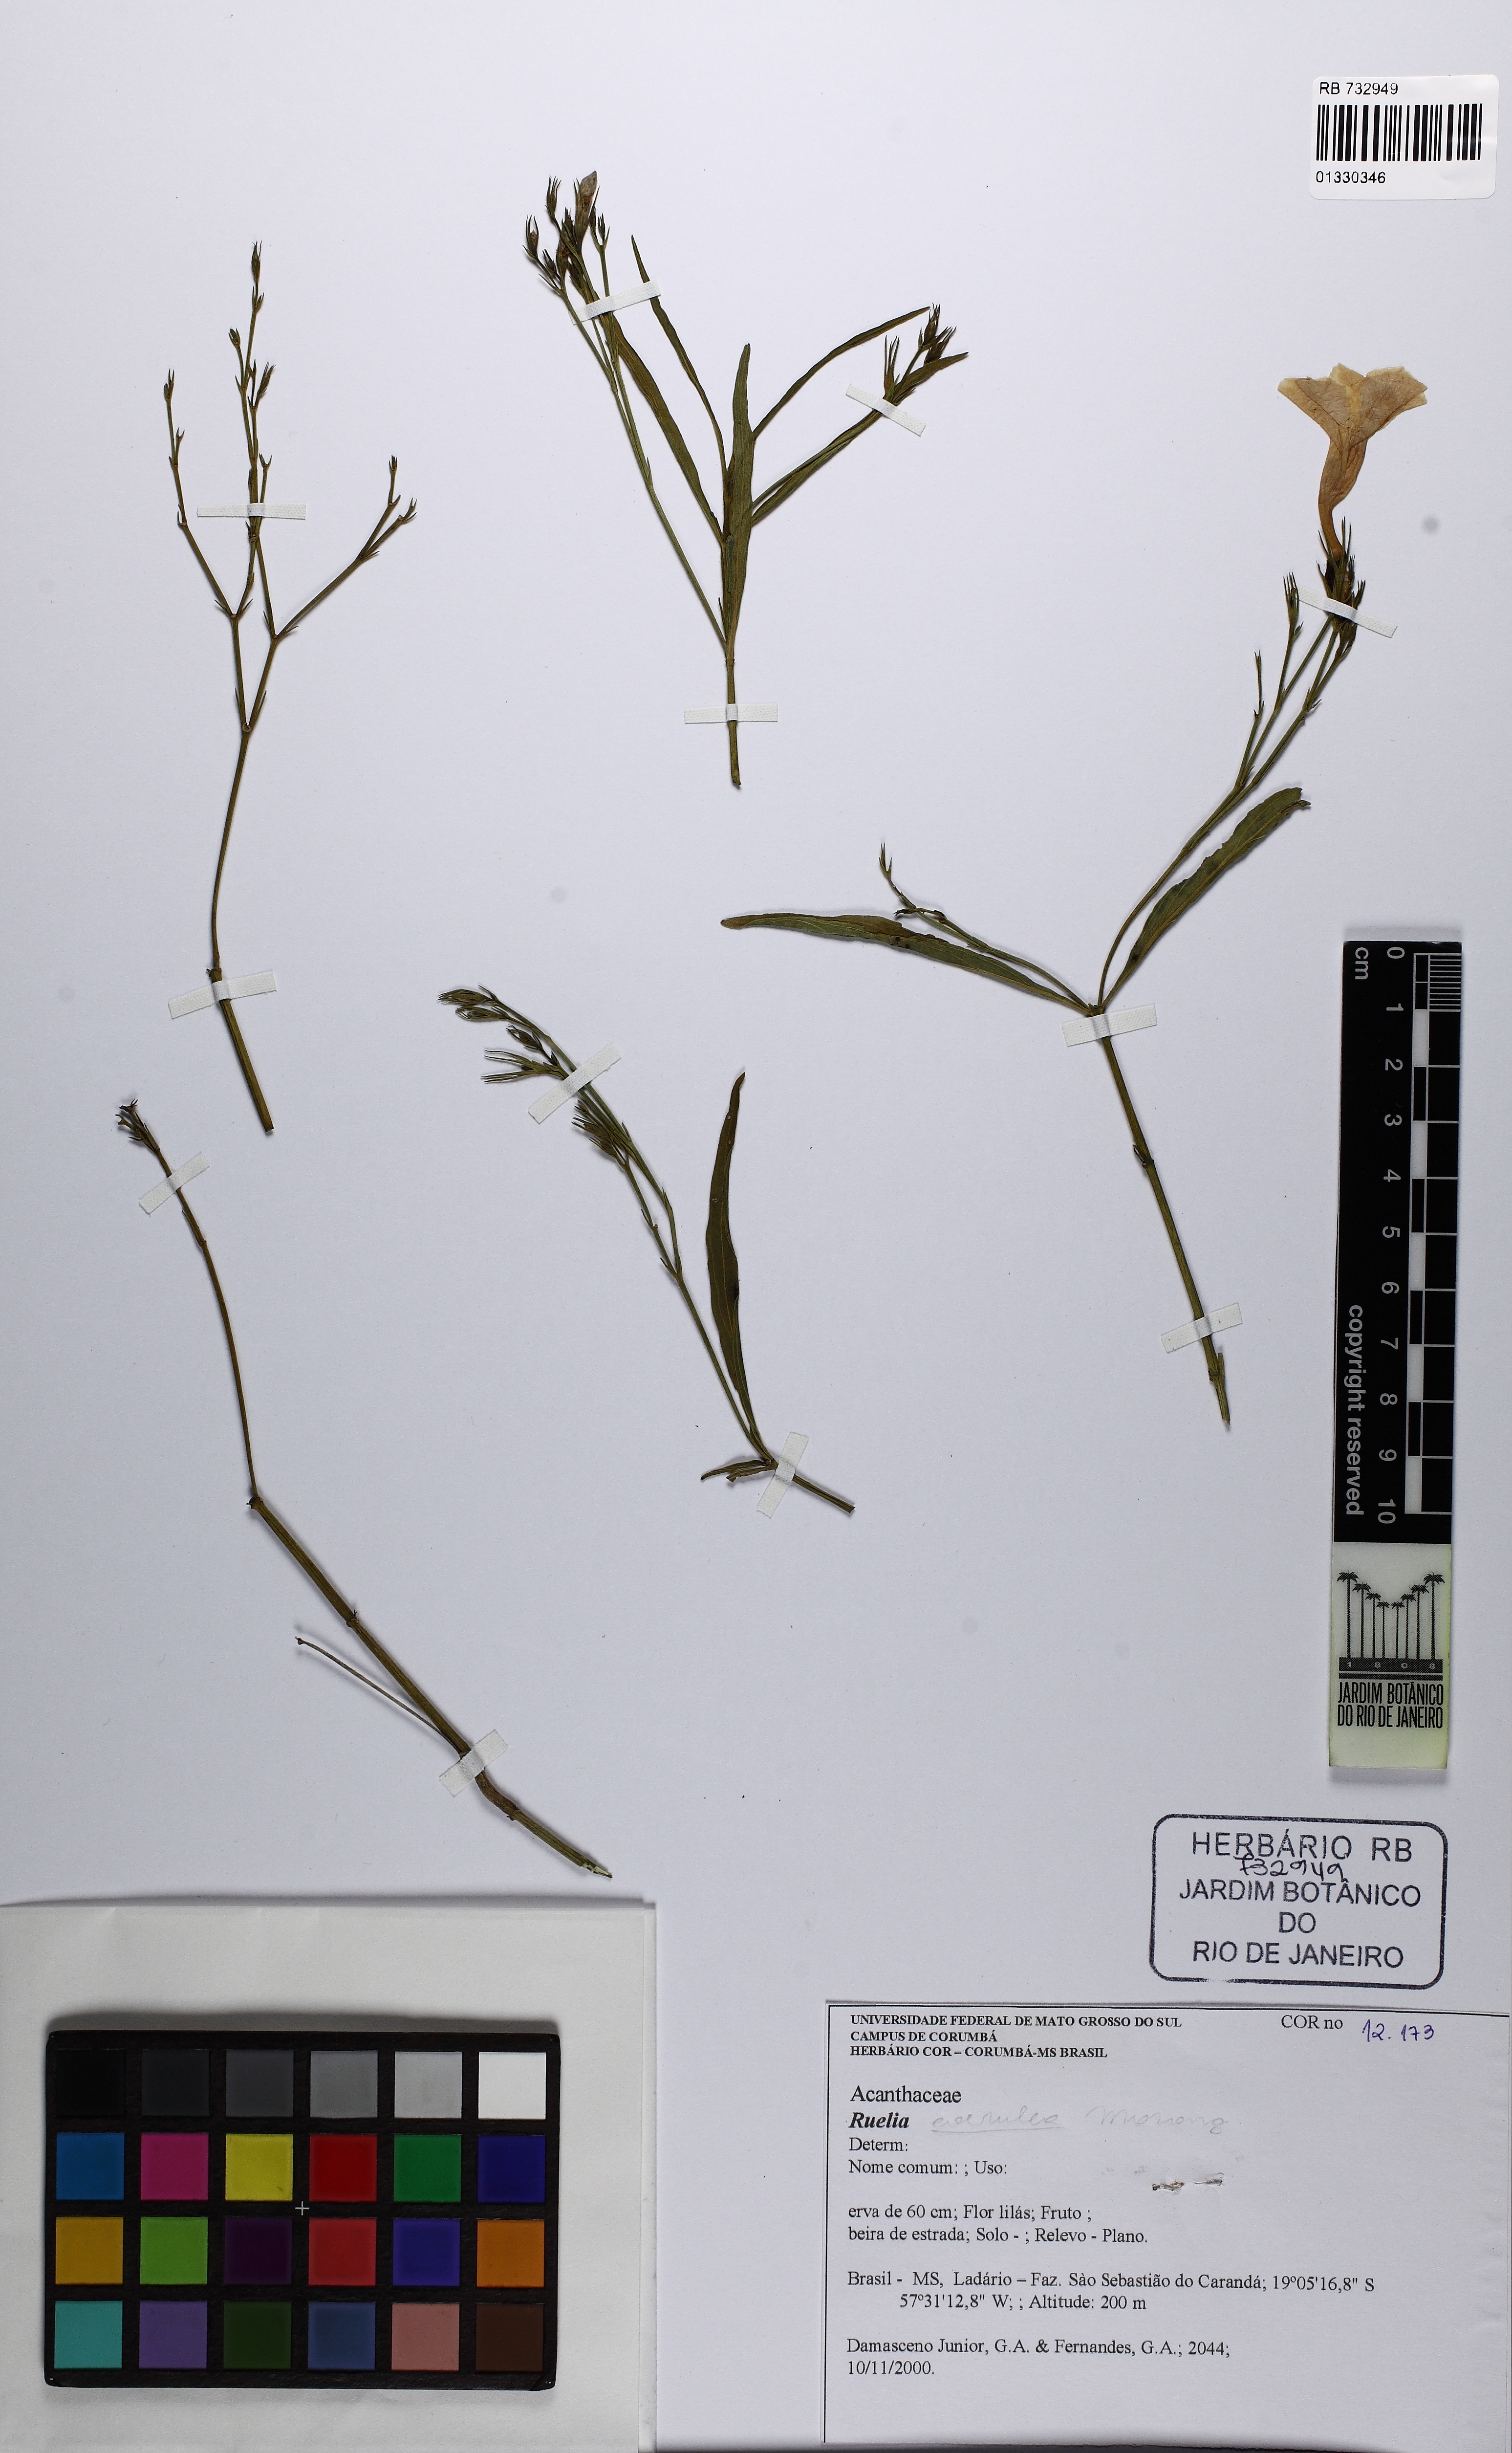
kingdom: Plantae
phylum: Tracheophyta
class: Magnoliopsida
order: Lamiales
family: Acanthaceae
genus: Ruellia
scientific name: Ruellia simplex
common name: Softseed wild petunia
